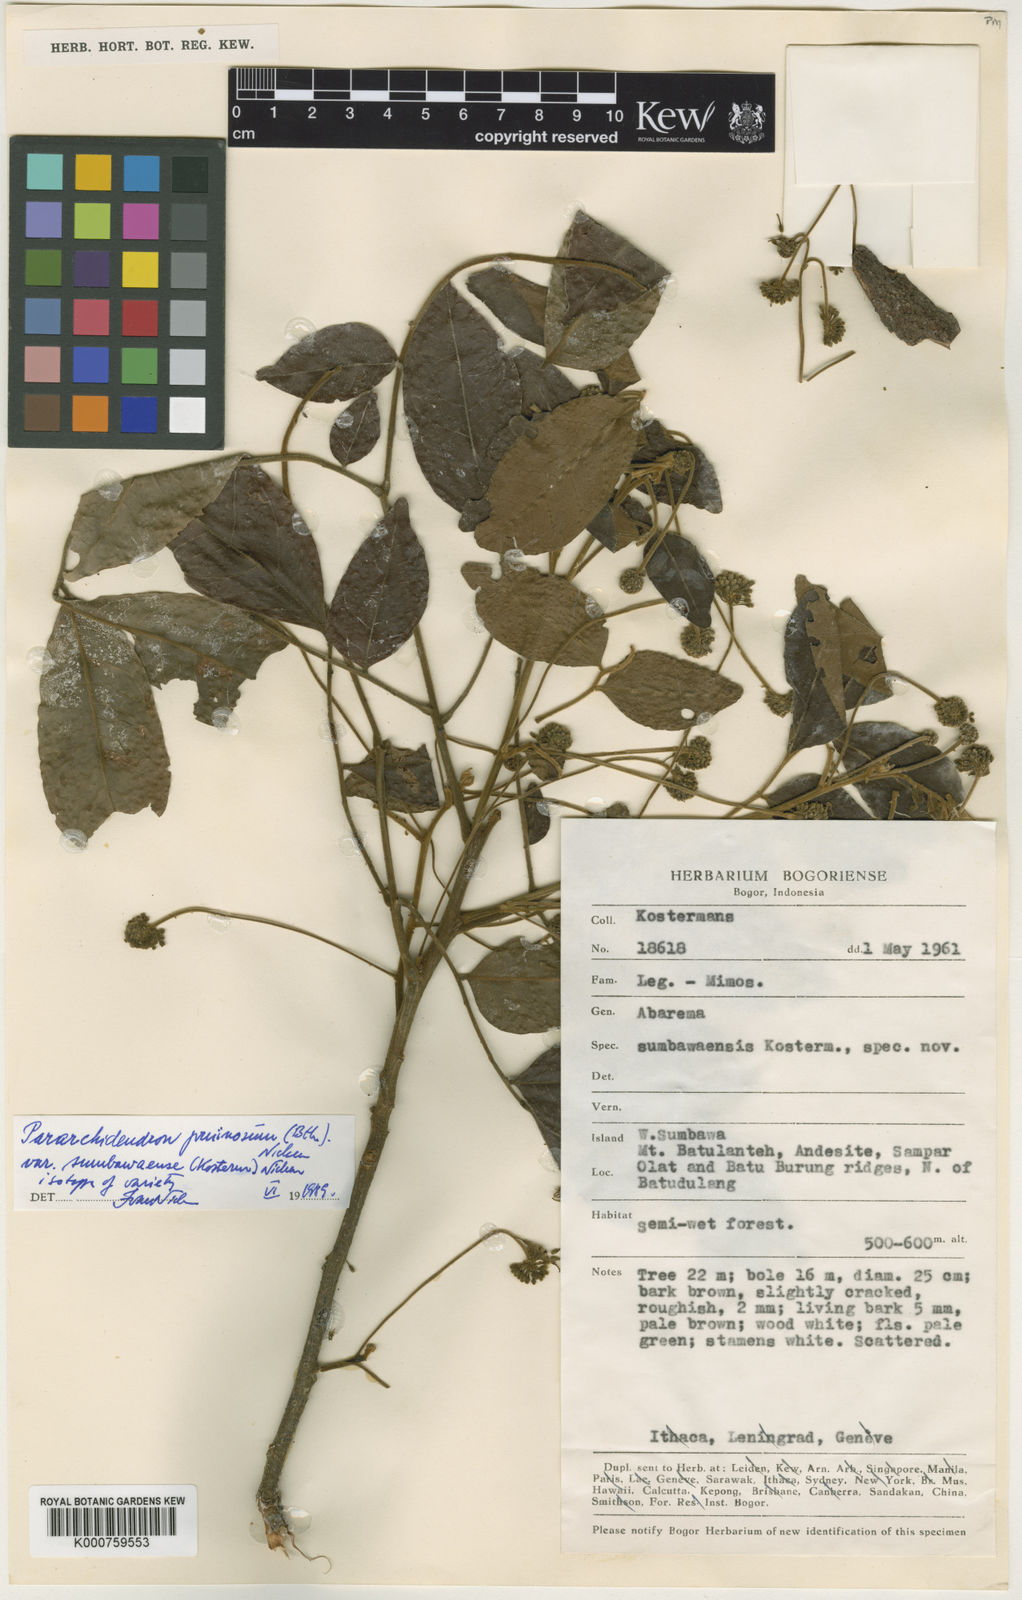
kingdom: Plantae
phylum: Tracheophyta
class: Magnoliopsida
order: Fabales
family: Fabaceae
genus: Pararchidendron
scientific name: Pararchidendron pruinosum
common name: Tulip siris
